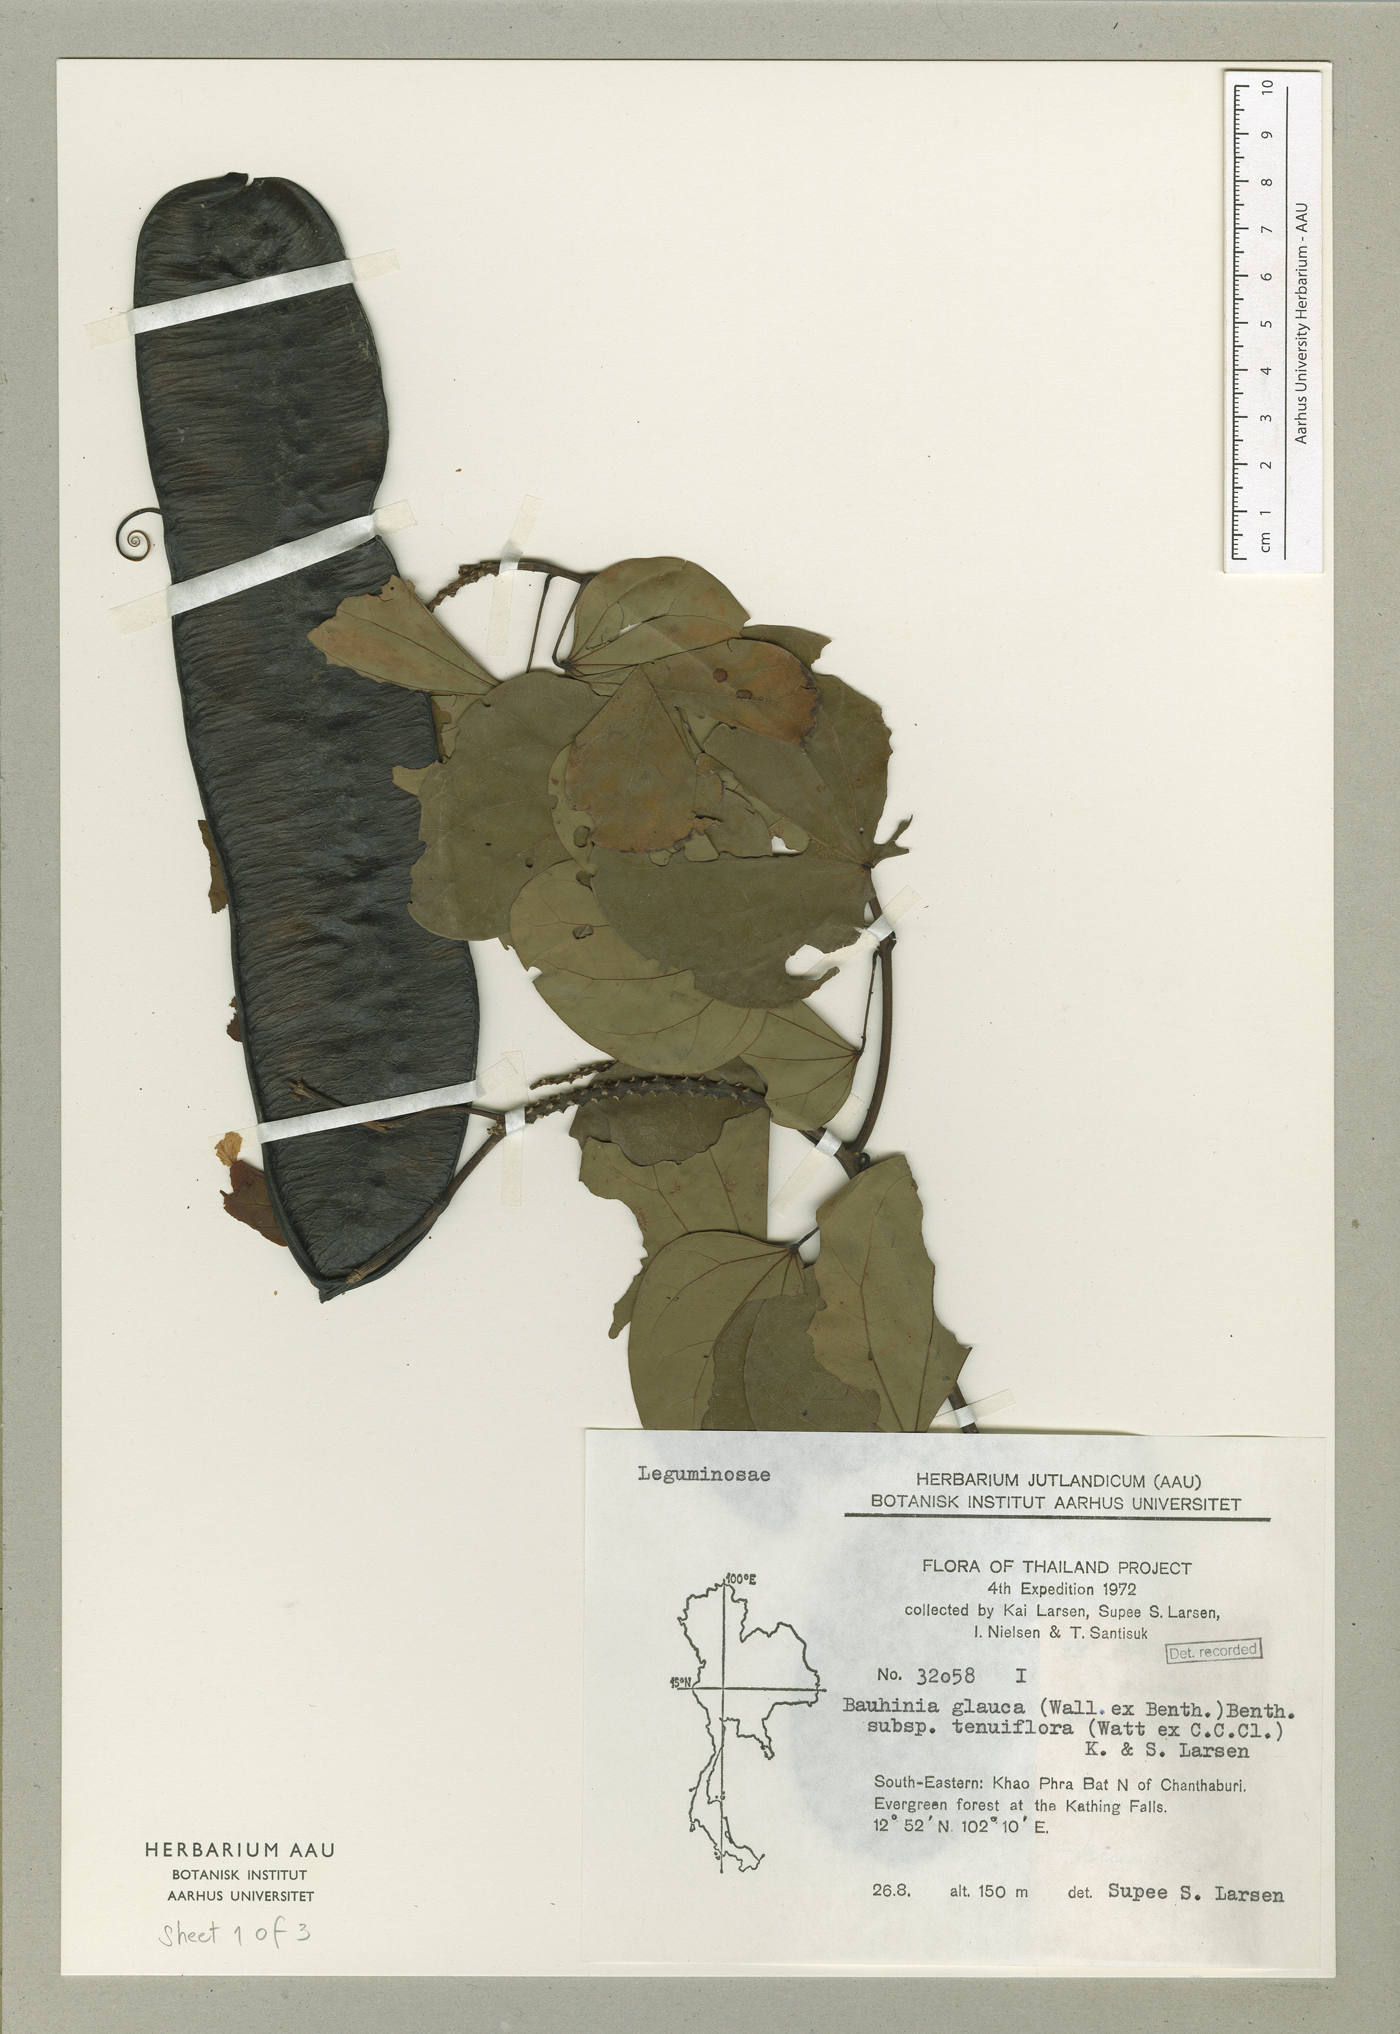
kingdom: Plantae
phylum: Tracheophyta
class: Magnoliopsida
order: Fabales
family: Fabaceae
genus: Cheniella
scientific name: Cheniella tenuiflora
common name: Bauhinia
